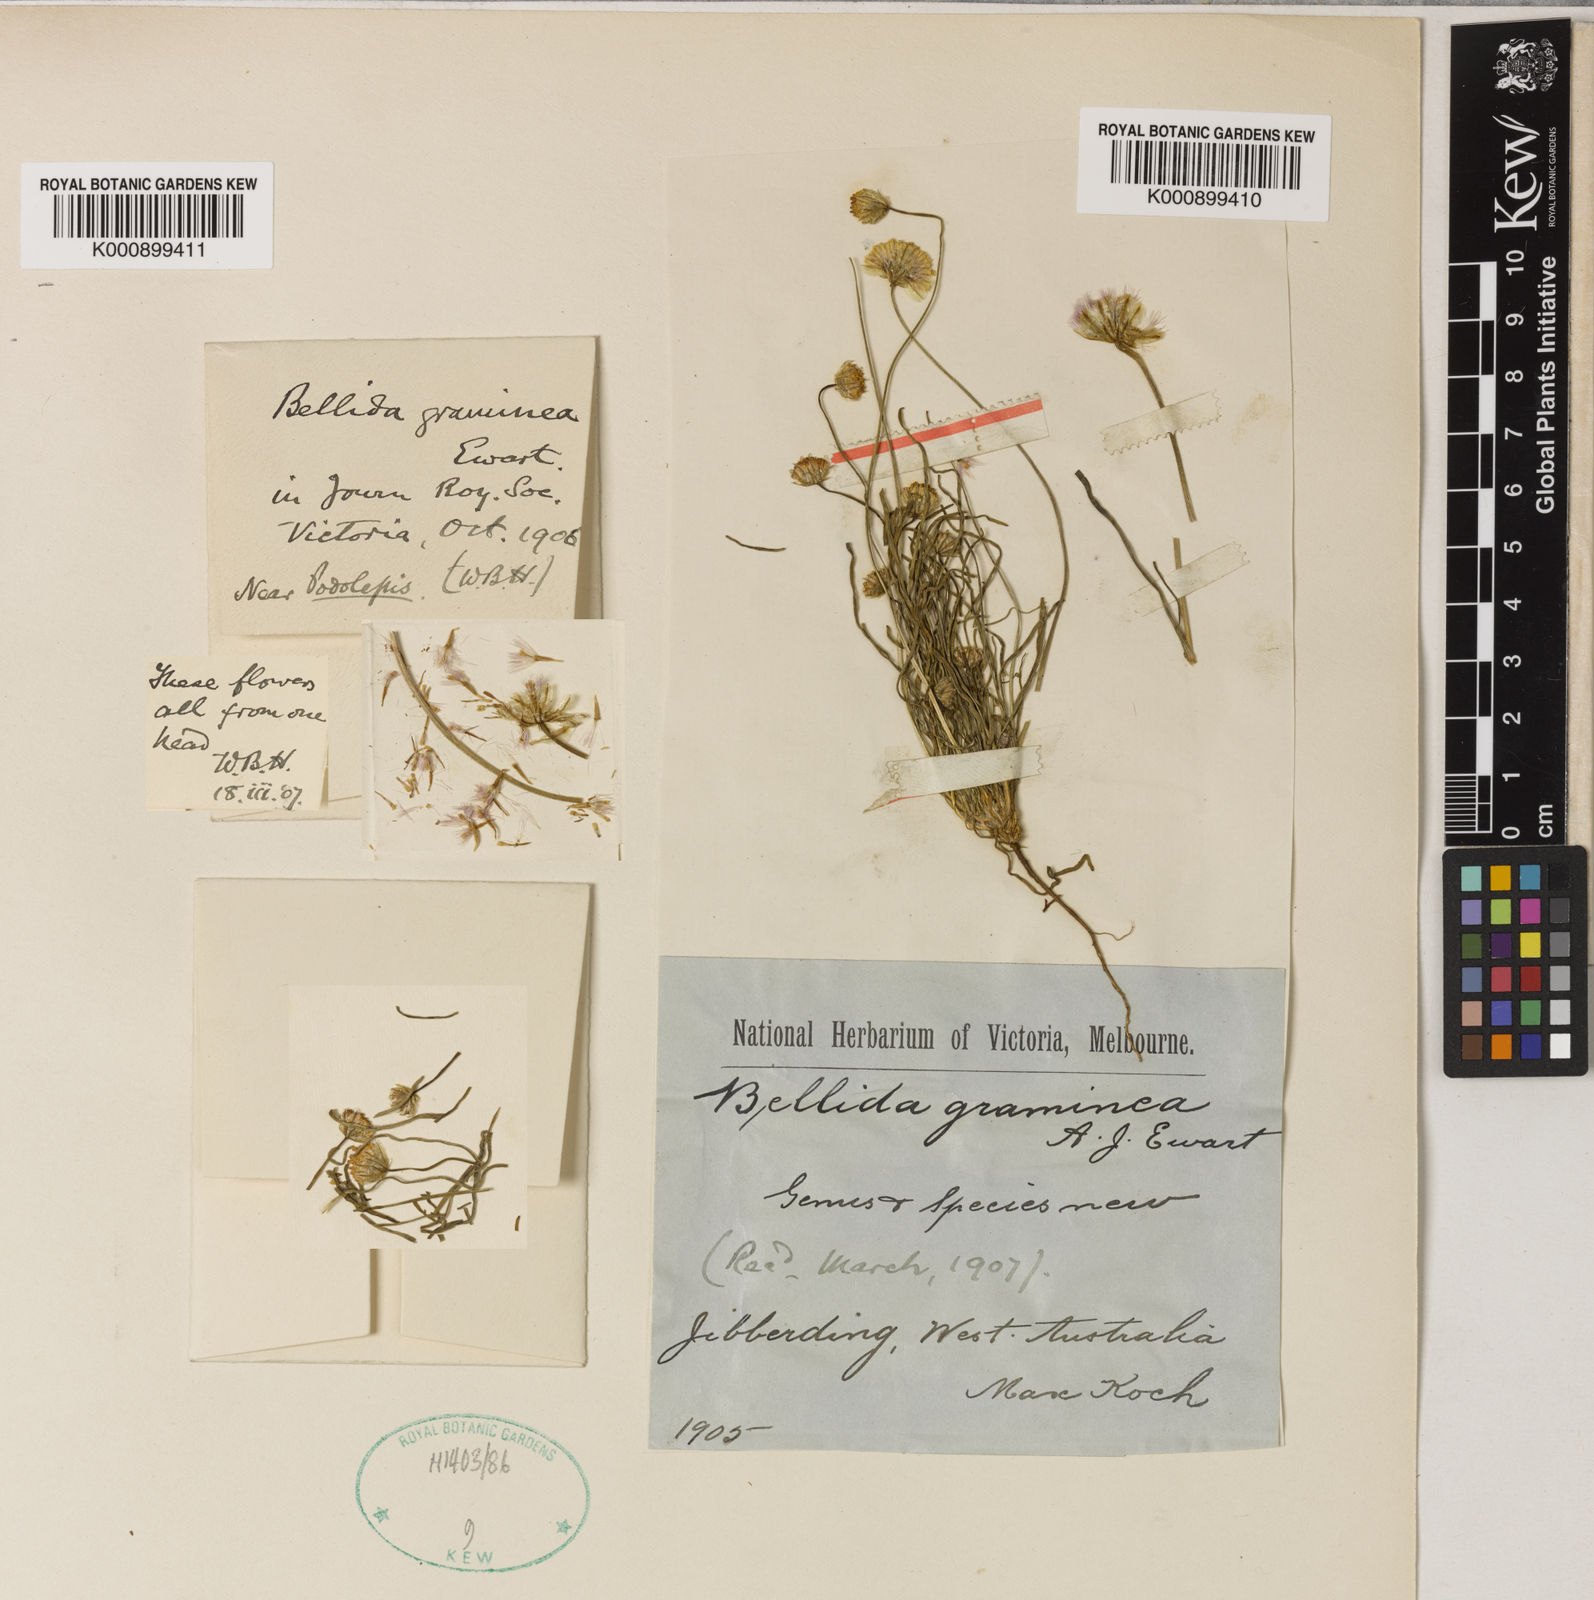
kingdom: Plantae
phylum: Tracheophyta
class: Magnoliopsida
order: Asterales
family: Asteraceae
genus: Bellida
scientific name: Bellida graminea
